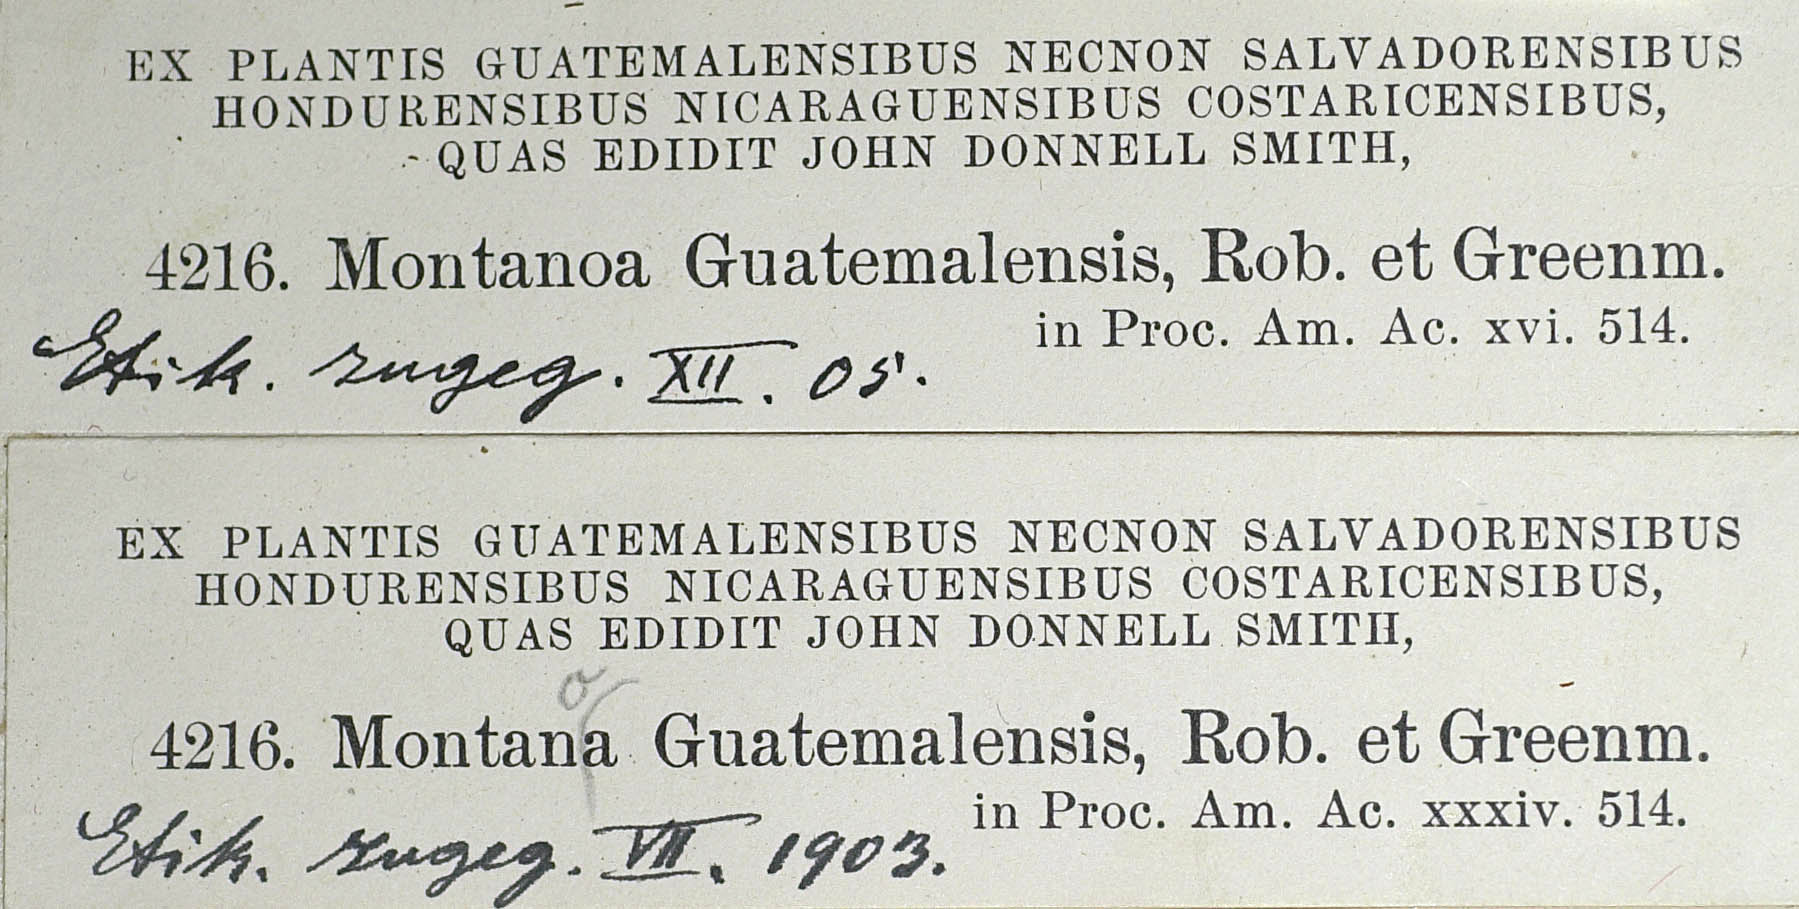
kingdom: Plantae
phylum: Tracheophyta
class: Magnoliopsida
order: Asterales
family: Asteraceae
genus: Montanoa
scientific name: Montanoa guatemalensis
